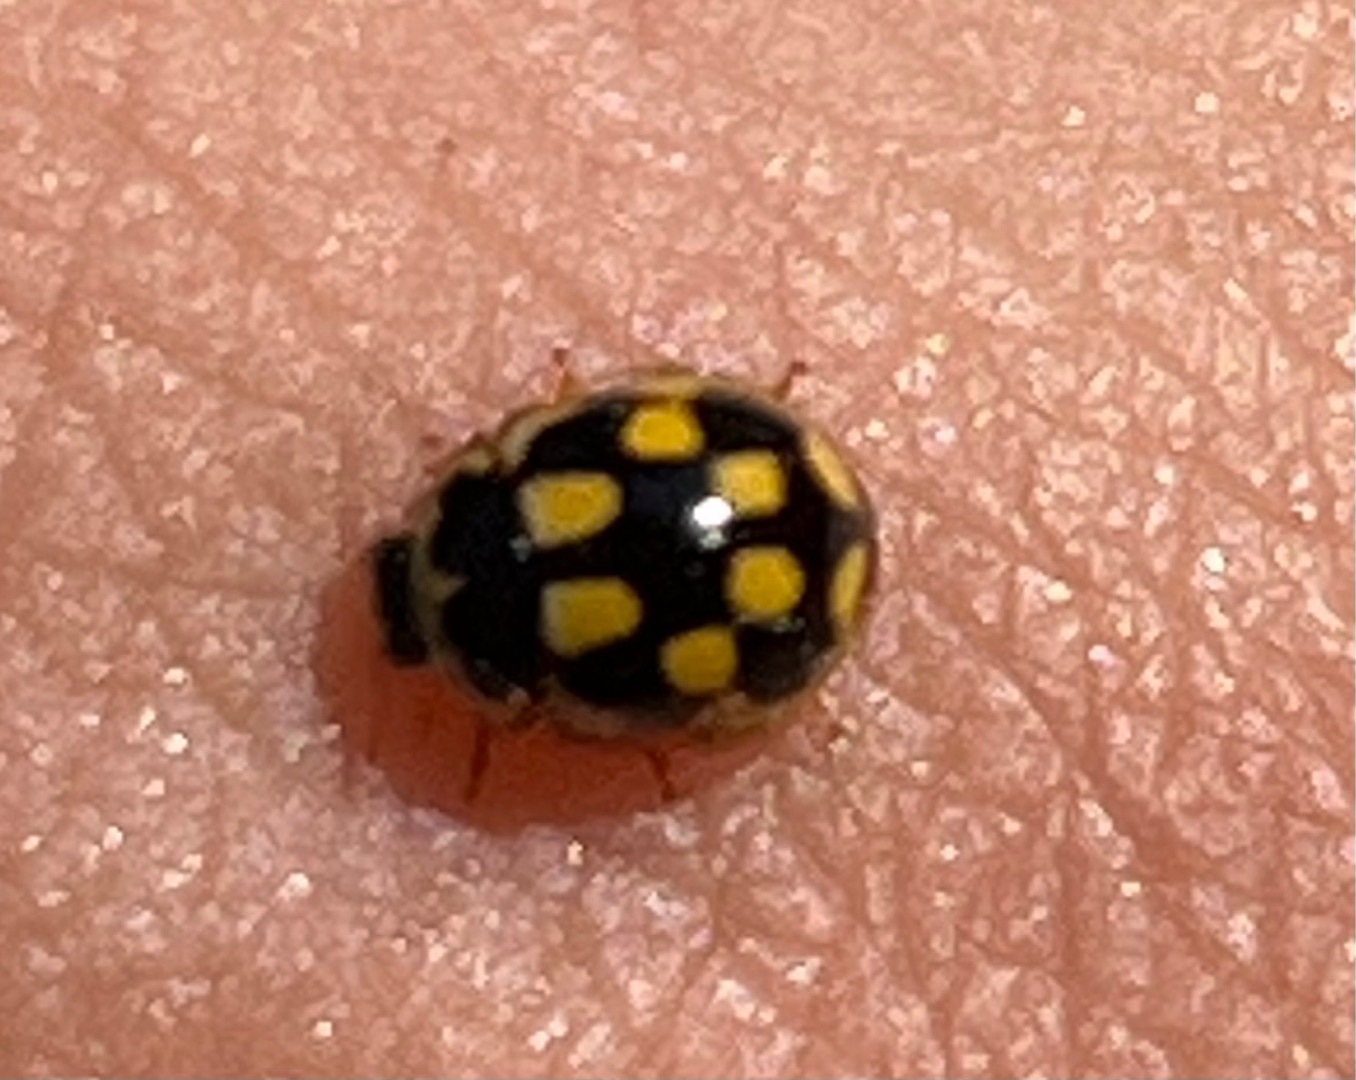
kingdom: Animalia
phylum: Arthropoda
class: Insecta
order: Coleoptera
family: Coccinellidae
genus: Propylaea
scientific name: Propylaea quatuordecimpunctata
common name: Skakbræt
